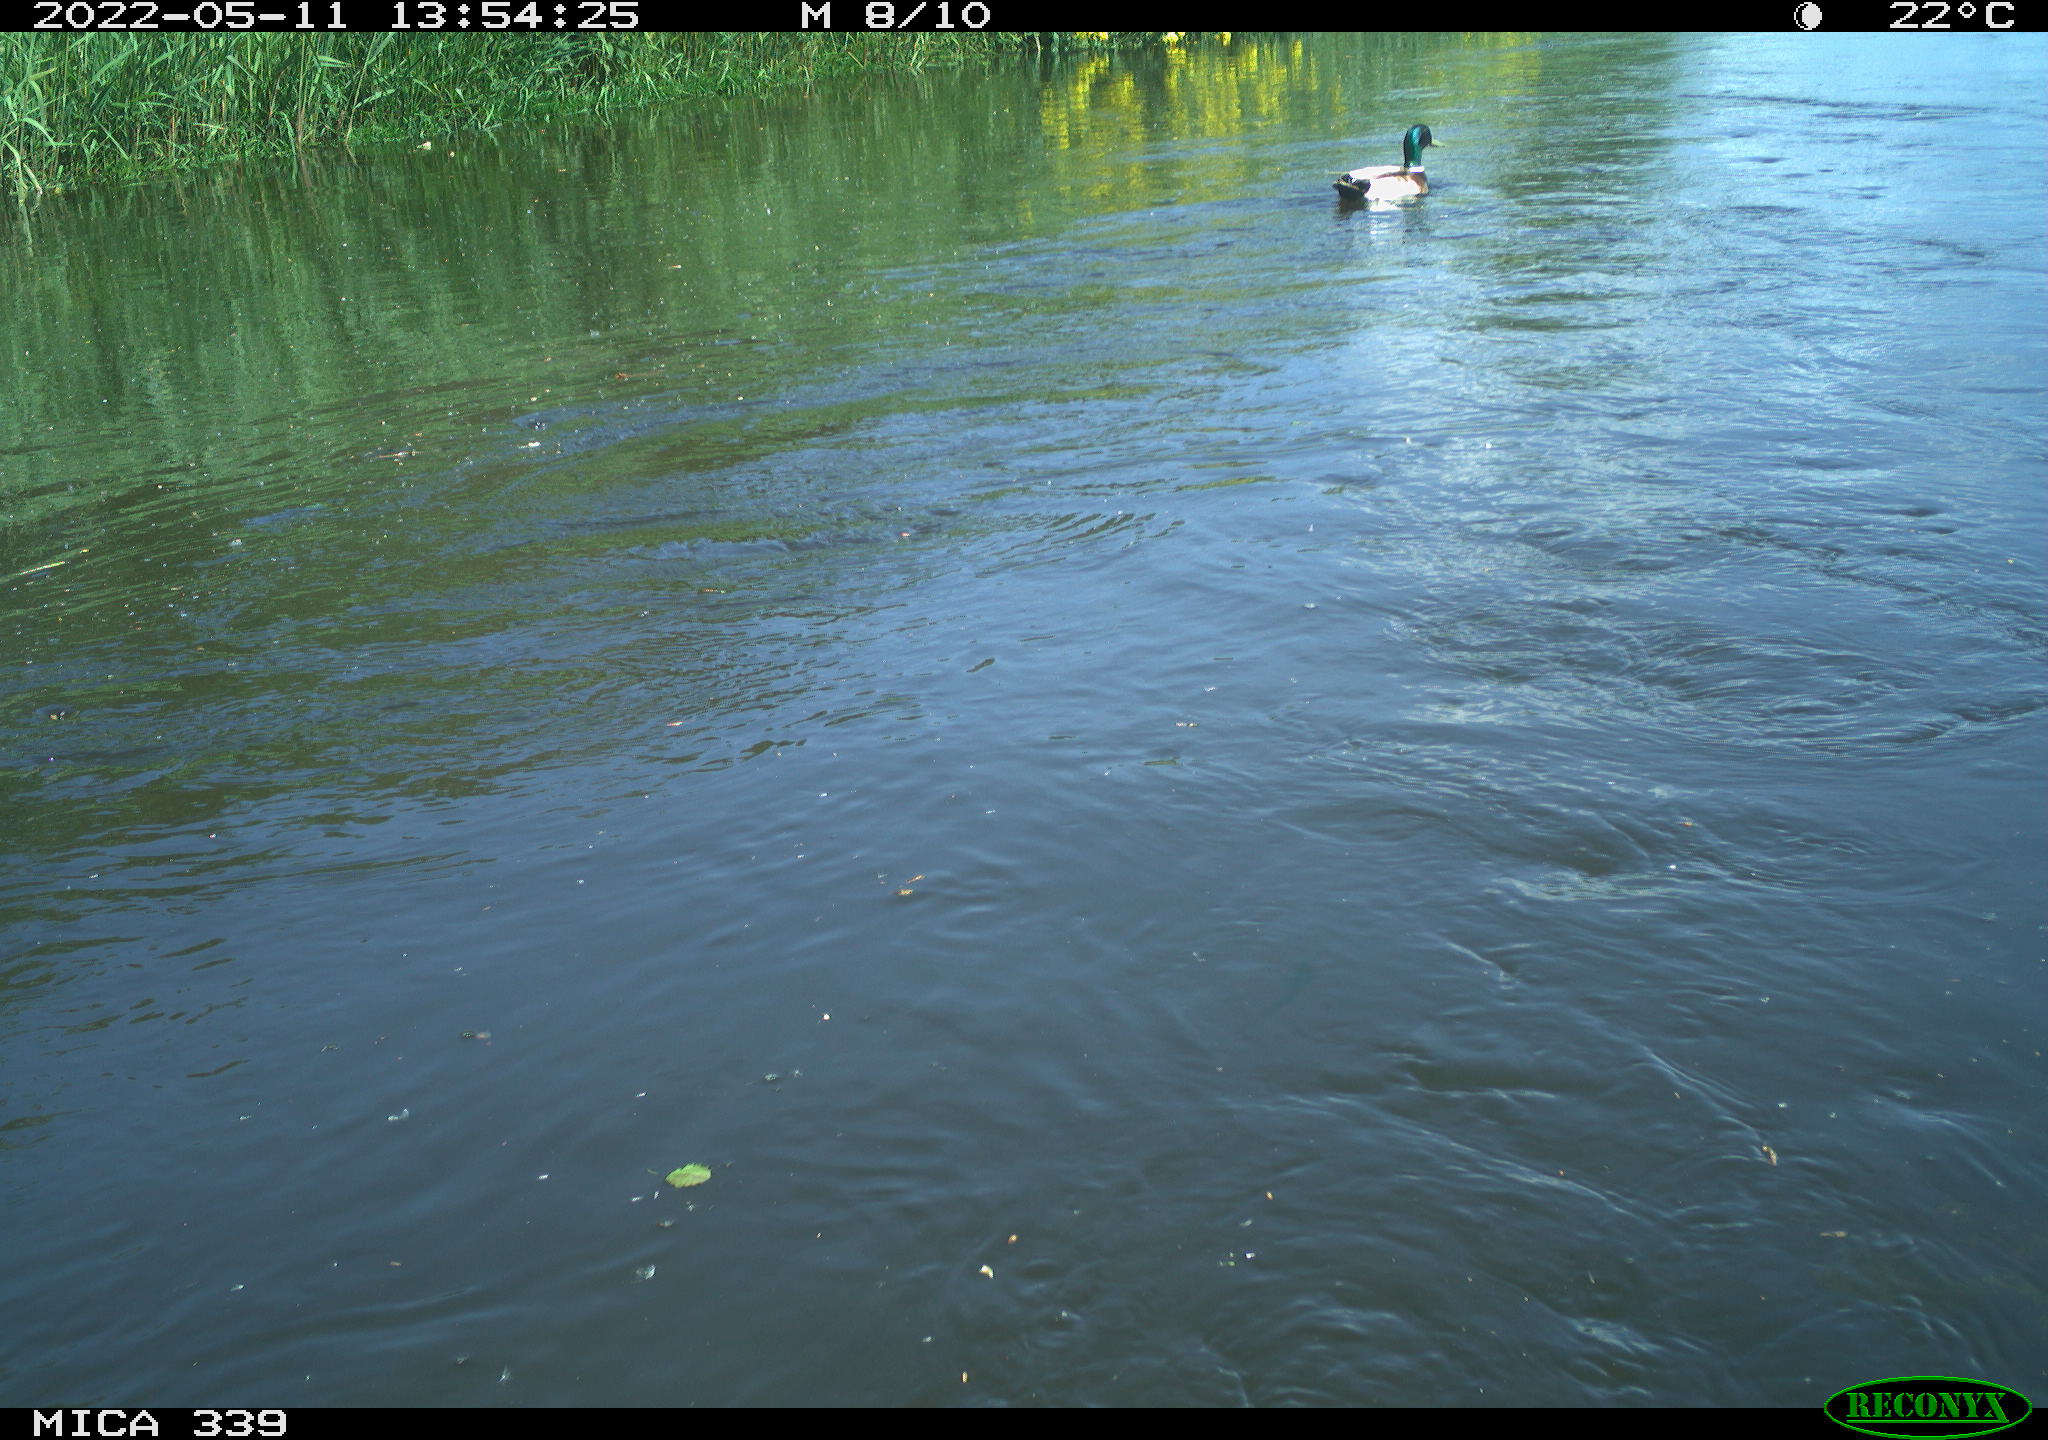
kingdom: Animalia
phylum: Chordata
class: Aves
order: Anseriformes
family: Anatidae
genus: Anas
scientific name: Anas platyrhynchos
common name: Mallard
